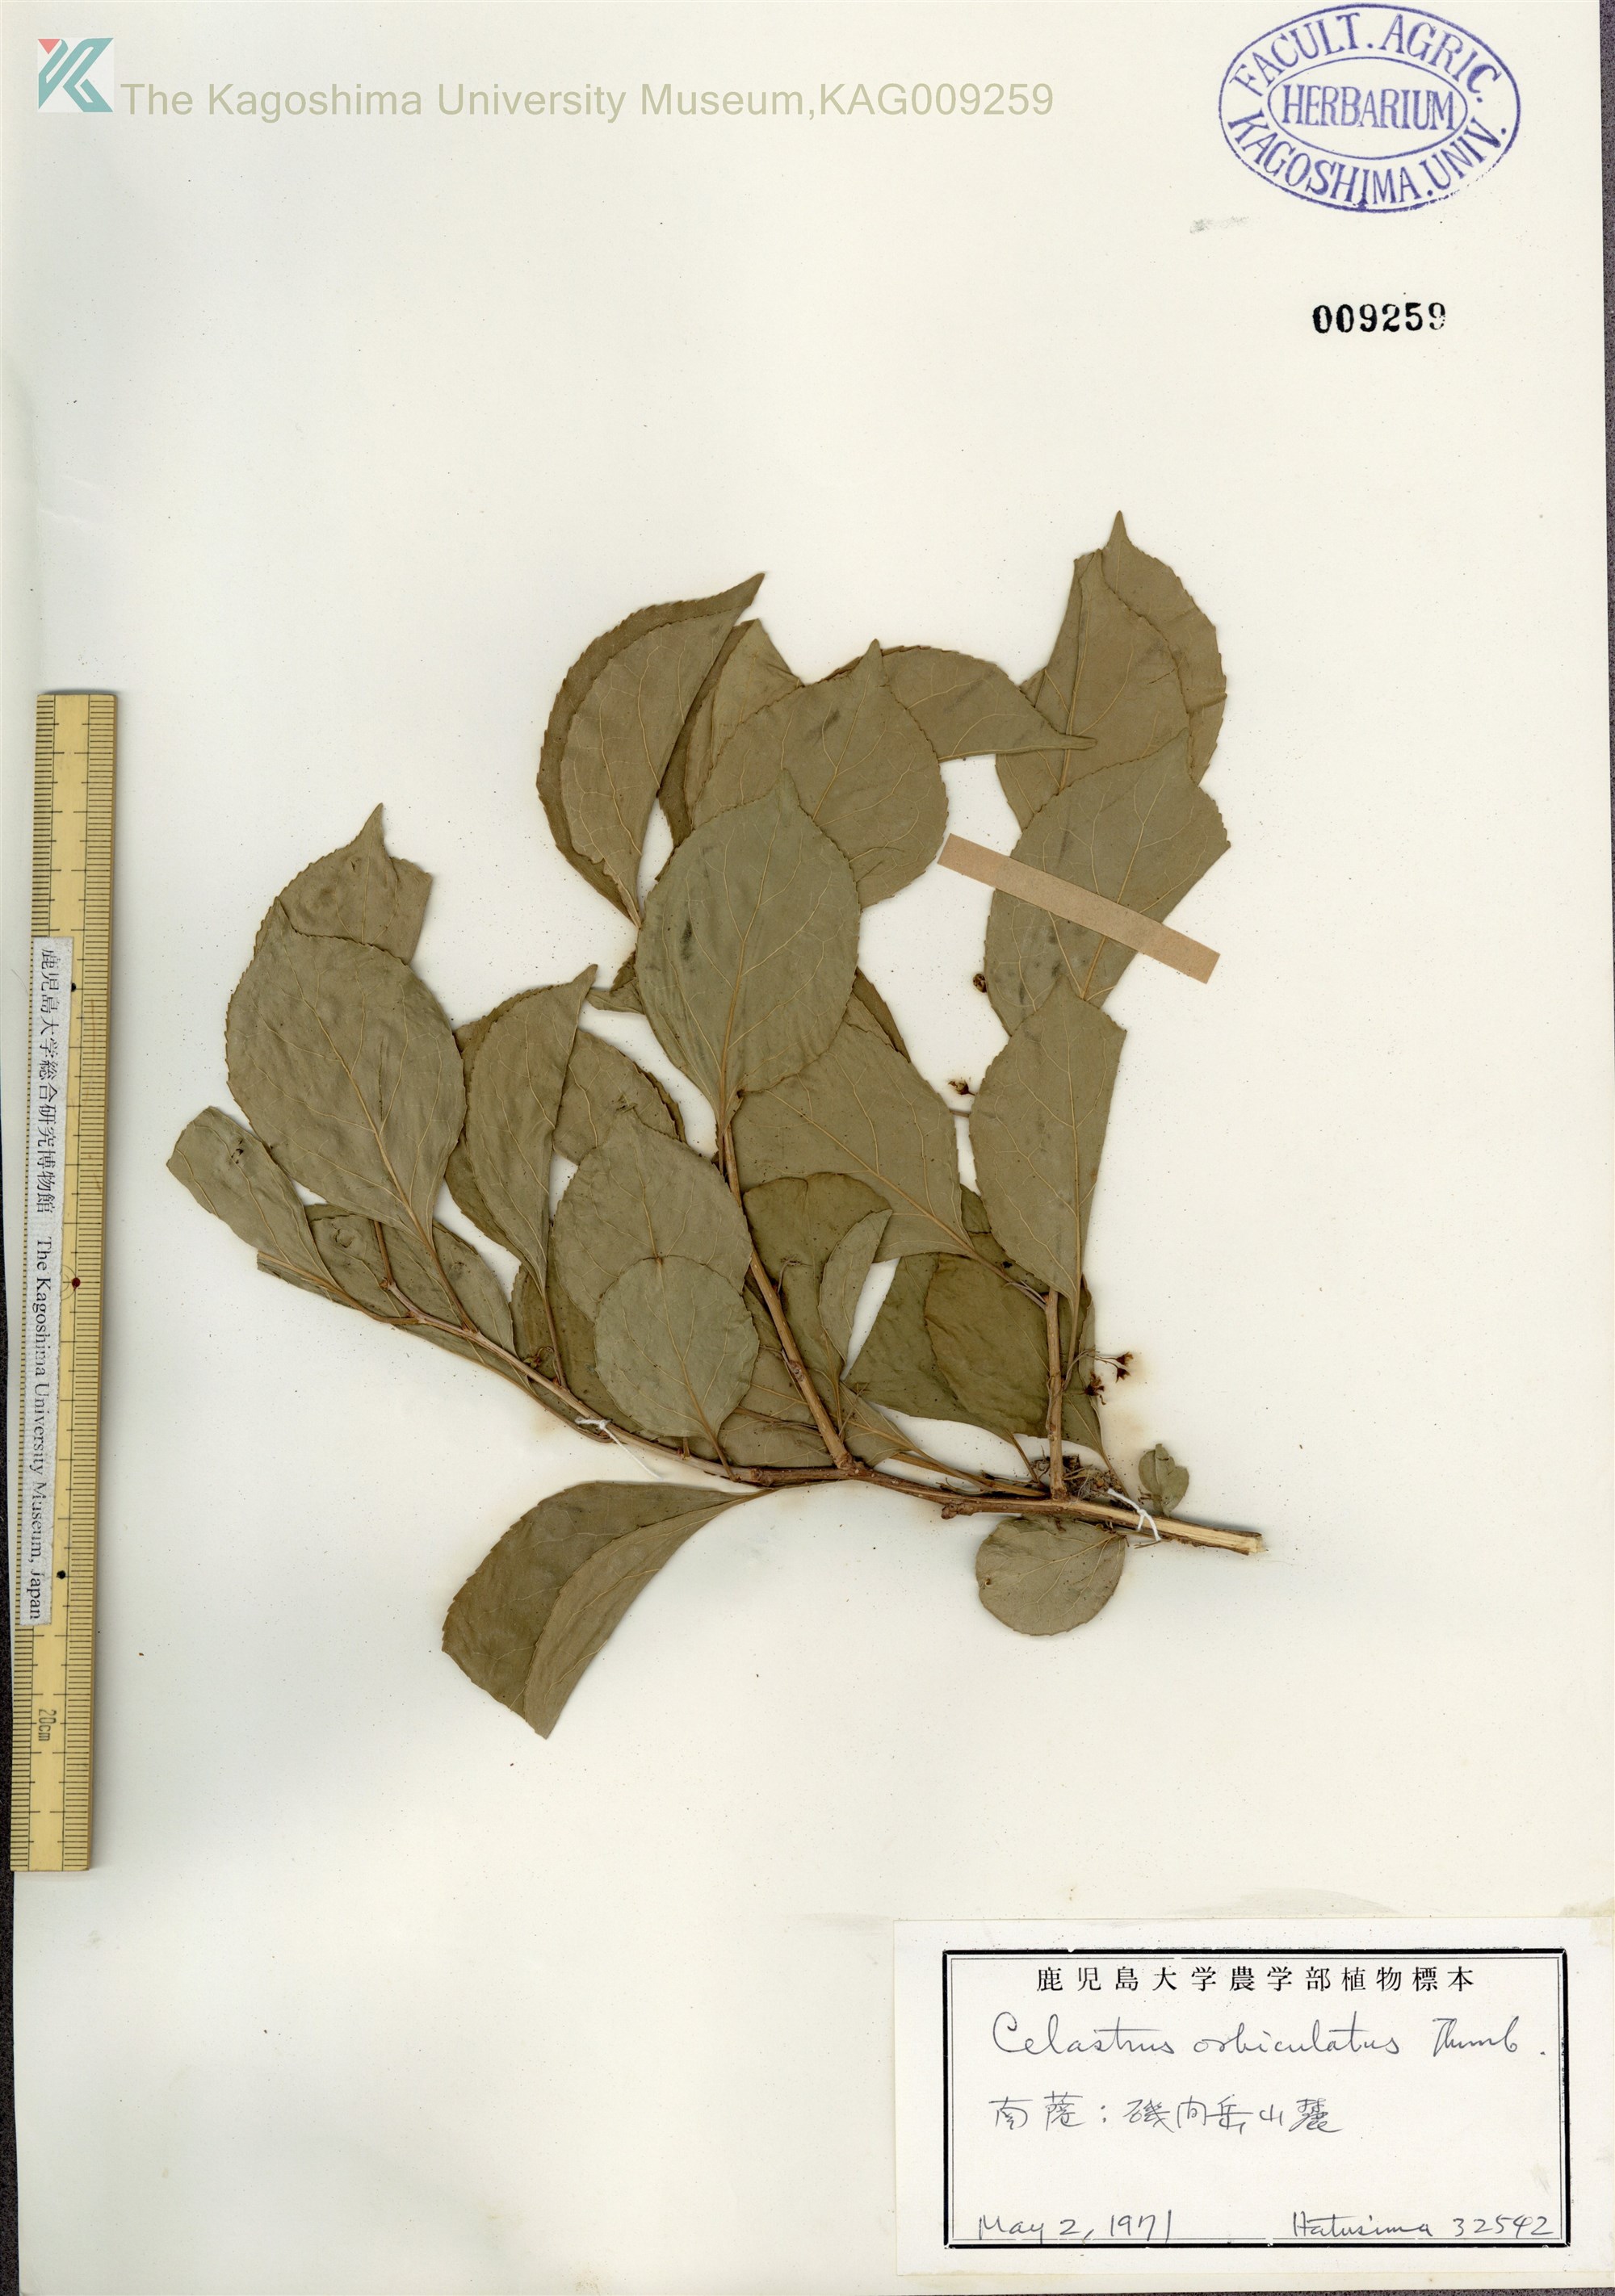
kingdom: Plantae
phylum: Tracheophyta
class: Magnoliopsida
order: Celastrales
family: Celastraceae
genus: Celastrus
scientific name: Celastrus orbiculatus
